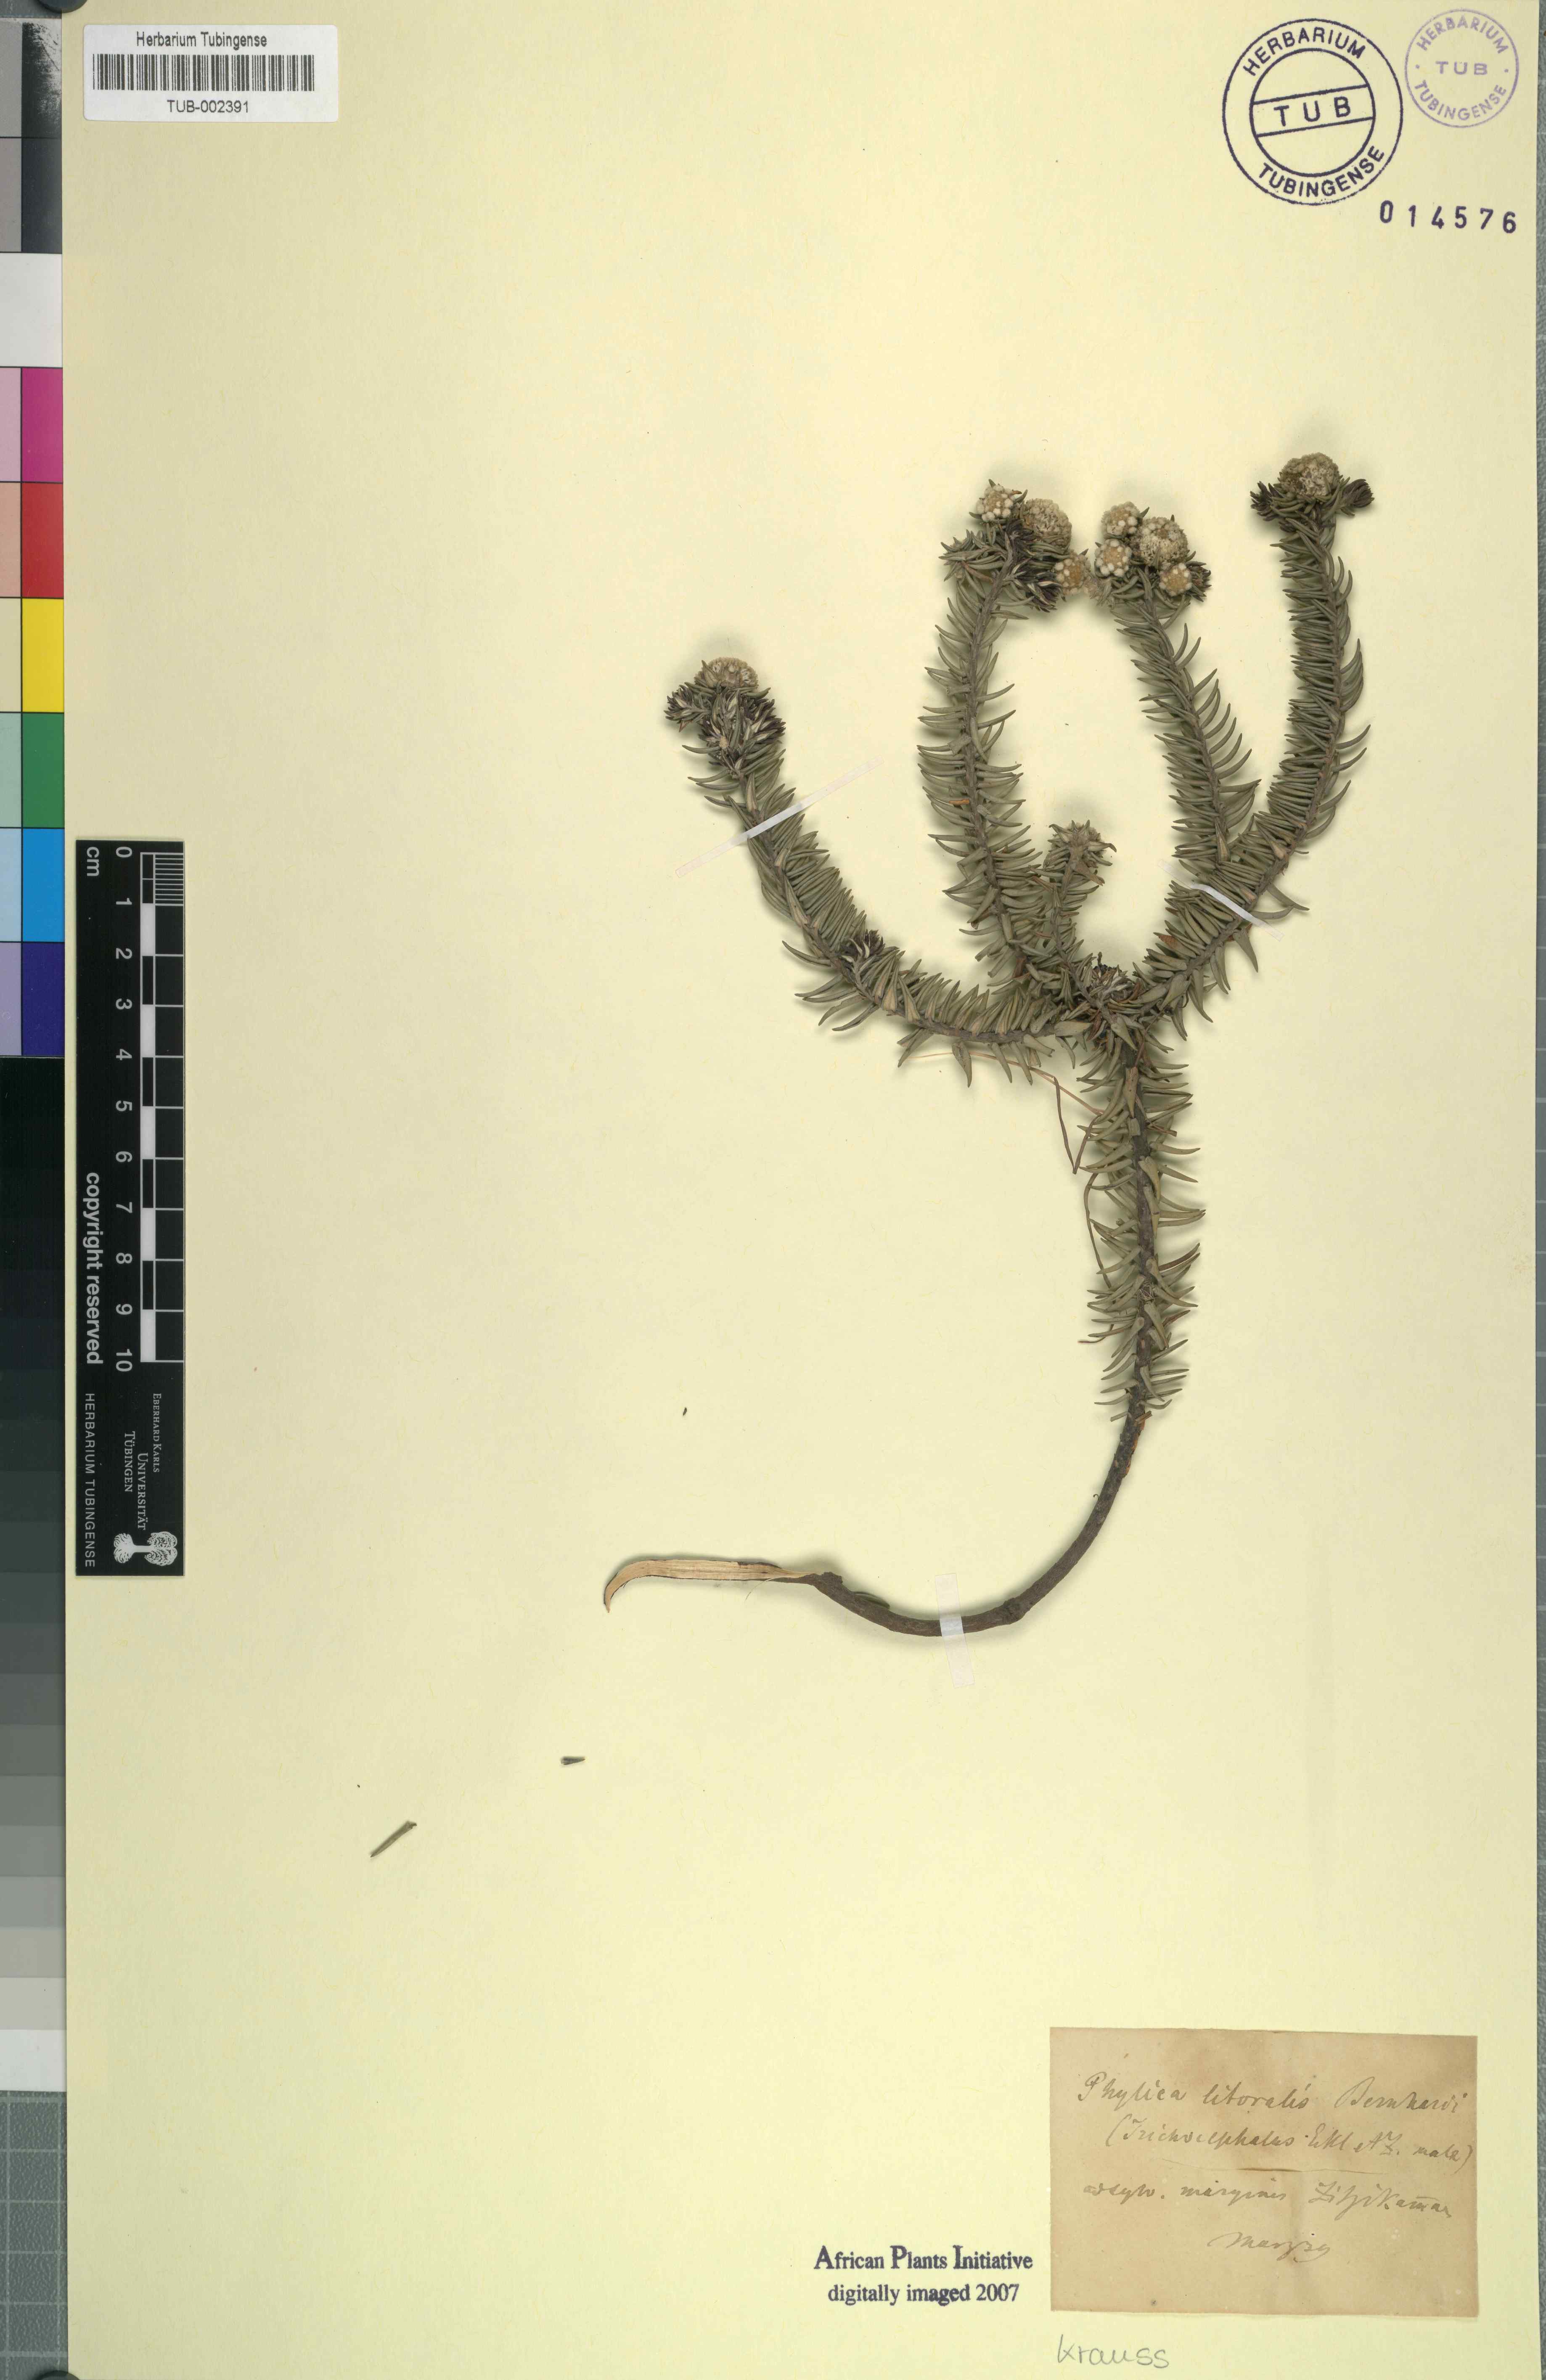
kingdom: Plantae
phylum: Tracheophyta
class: Magnoliopsida
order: Rosales
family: Rhamnaceae
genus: Phylica
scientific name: Phylica litoralis
